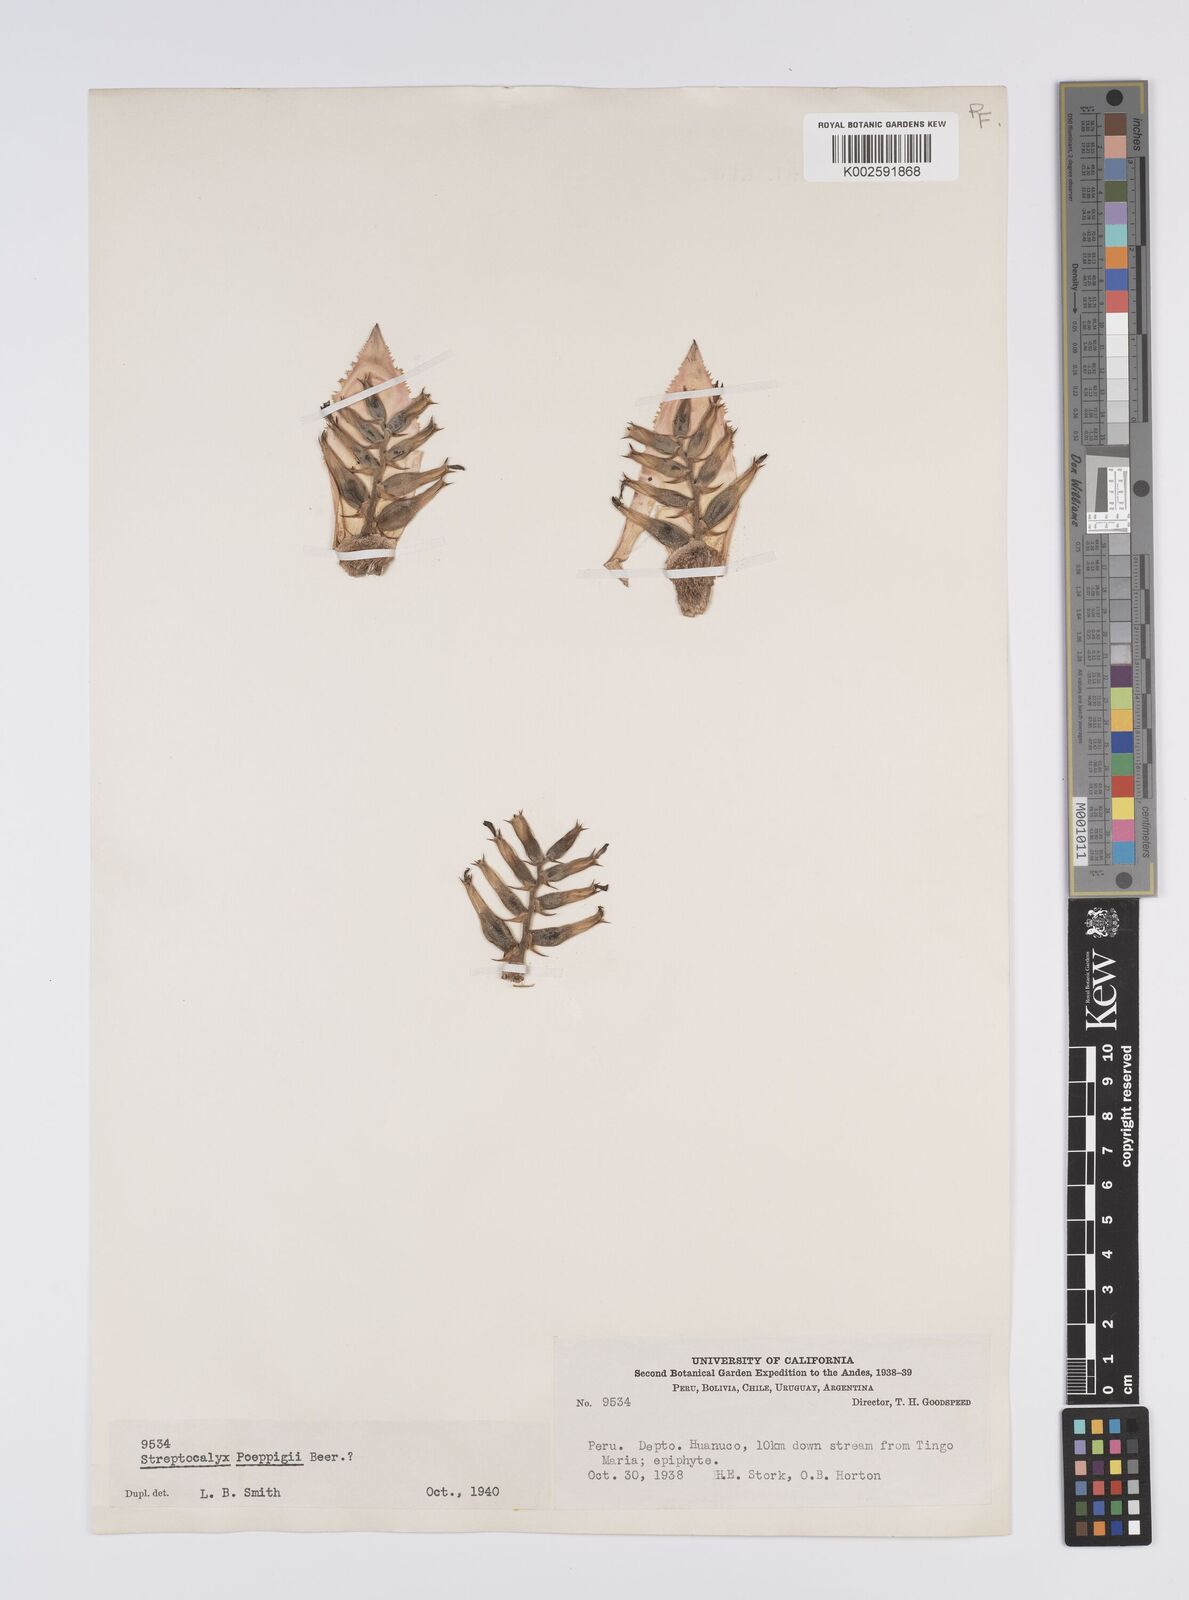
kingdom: Plantae
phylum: Tracheophyta
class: Liliopsida
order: Poales
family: Bromeliaceae
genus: Aechmea
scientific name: Aechmea
